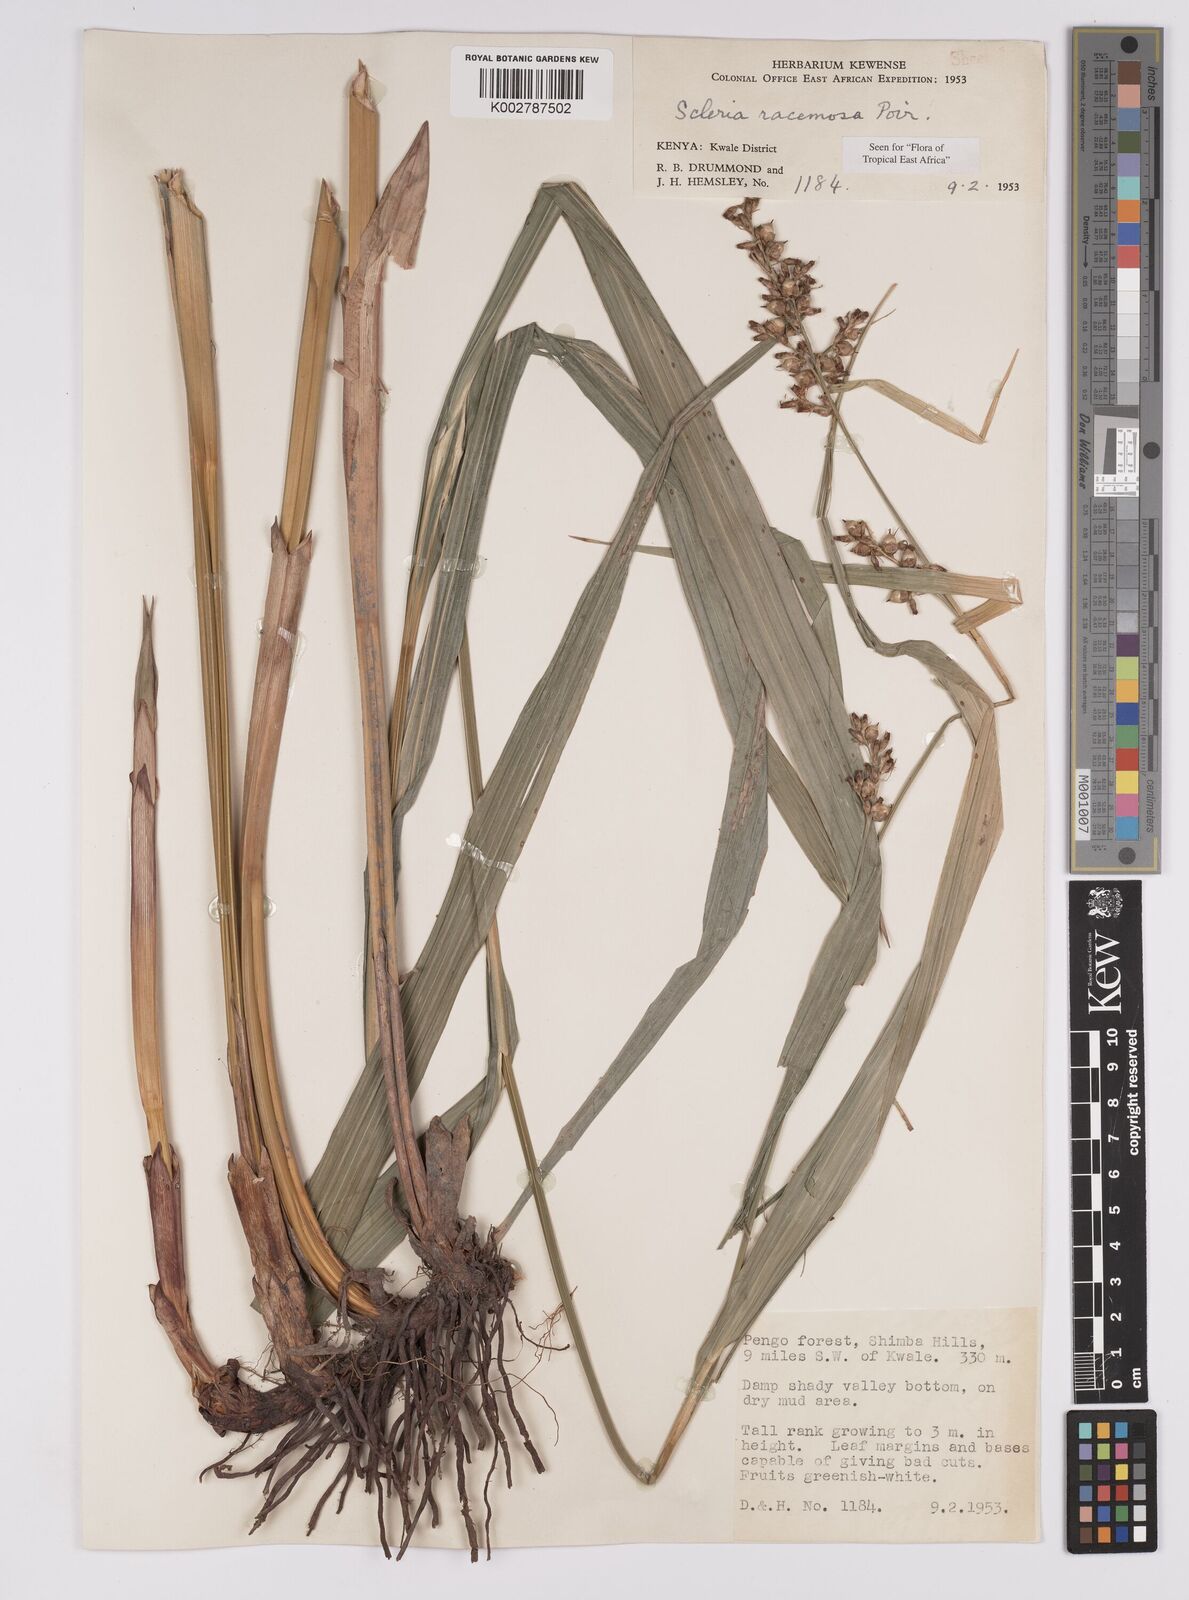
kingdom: Plantae
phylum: Tracheophyta
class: Liliopsida
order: Poales
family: Cyperaceae
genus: Scleria
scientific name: Scleria racemosa
